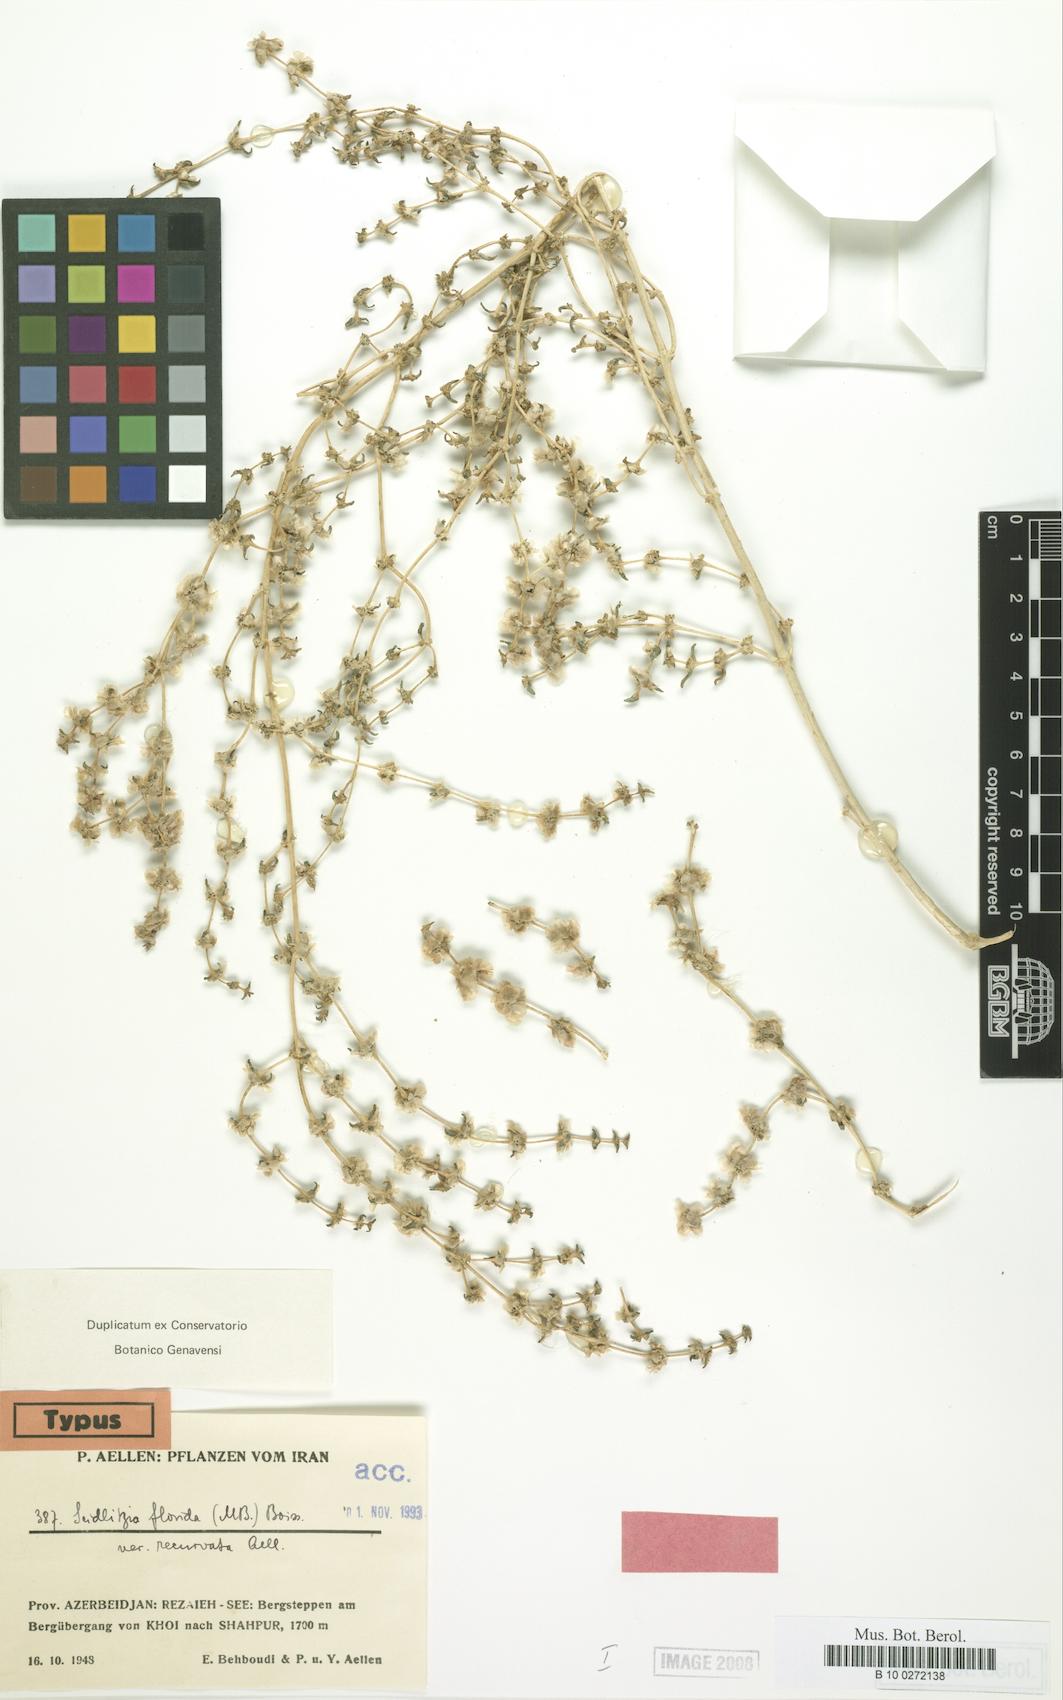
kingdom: Plantae
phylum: Tracheophyta
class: Magnoliopsida
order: Caryophyllales
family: Amaranthaceae
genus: Soda
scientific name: Soda florida
